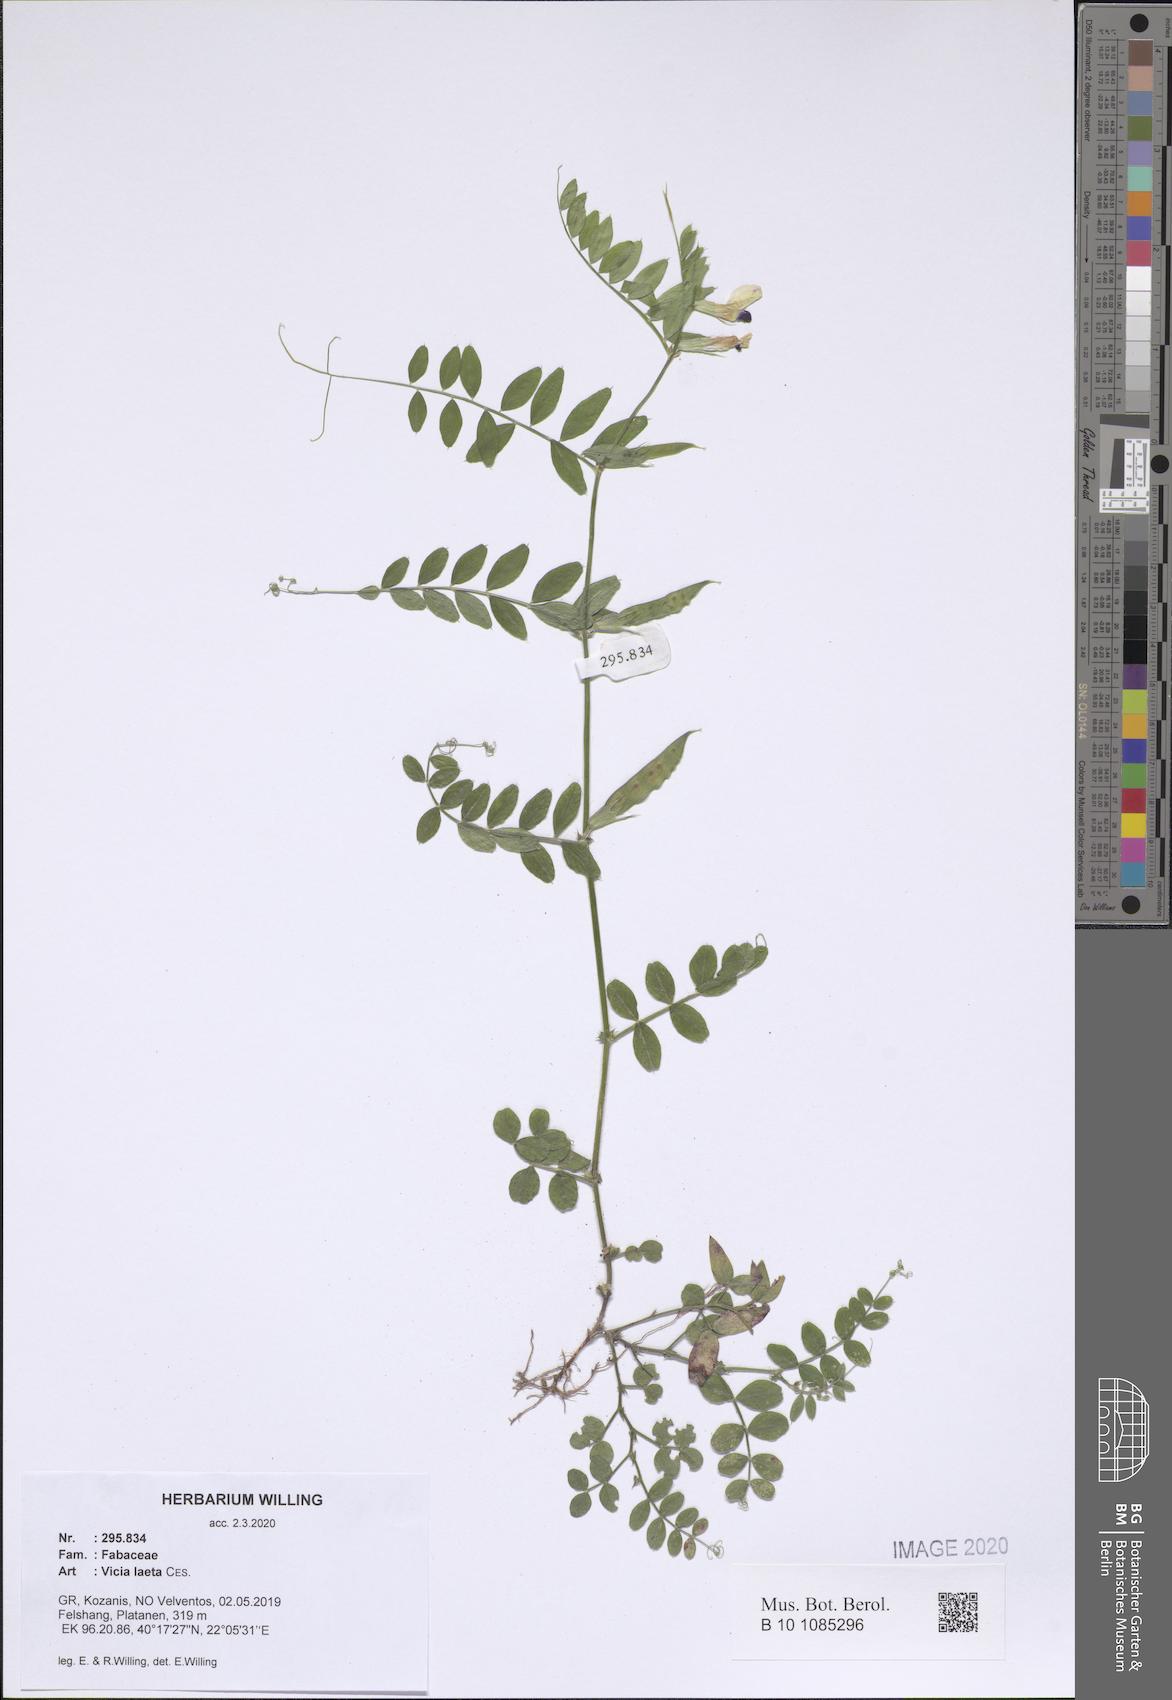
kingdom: Plantae
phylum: Tracheophyta
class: Magnoliopsida
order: Fabales
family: Fabaceae
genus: Vicia
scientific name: Vicia laeta
